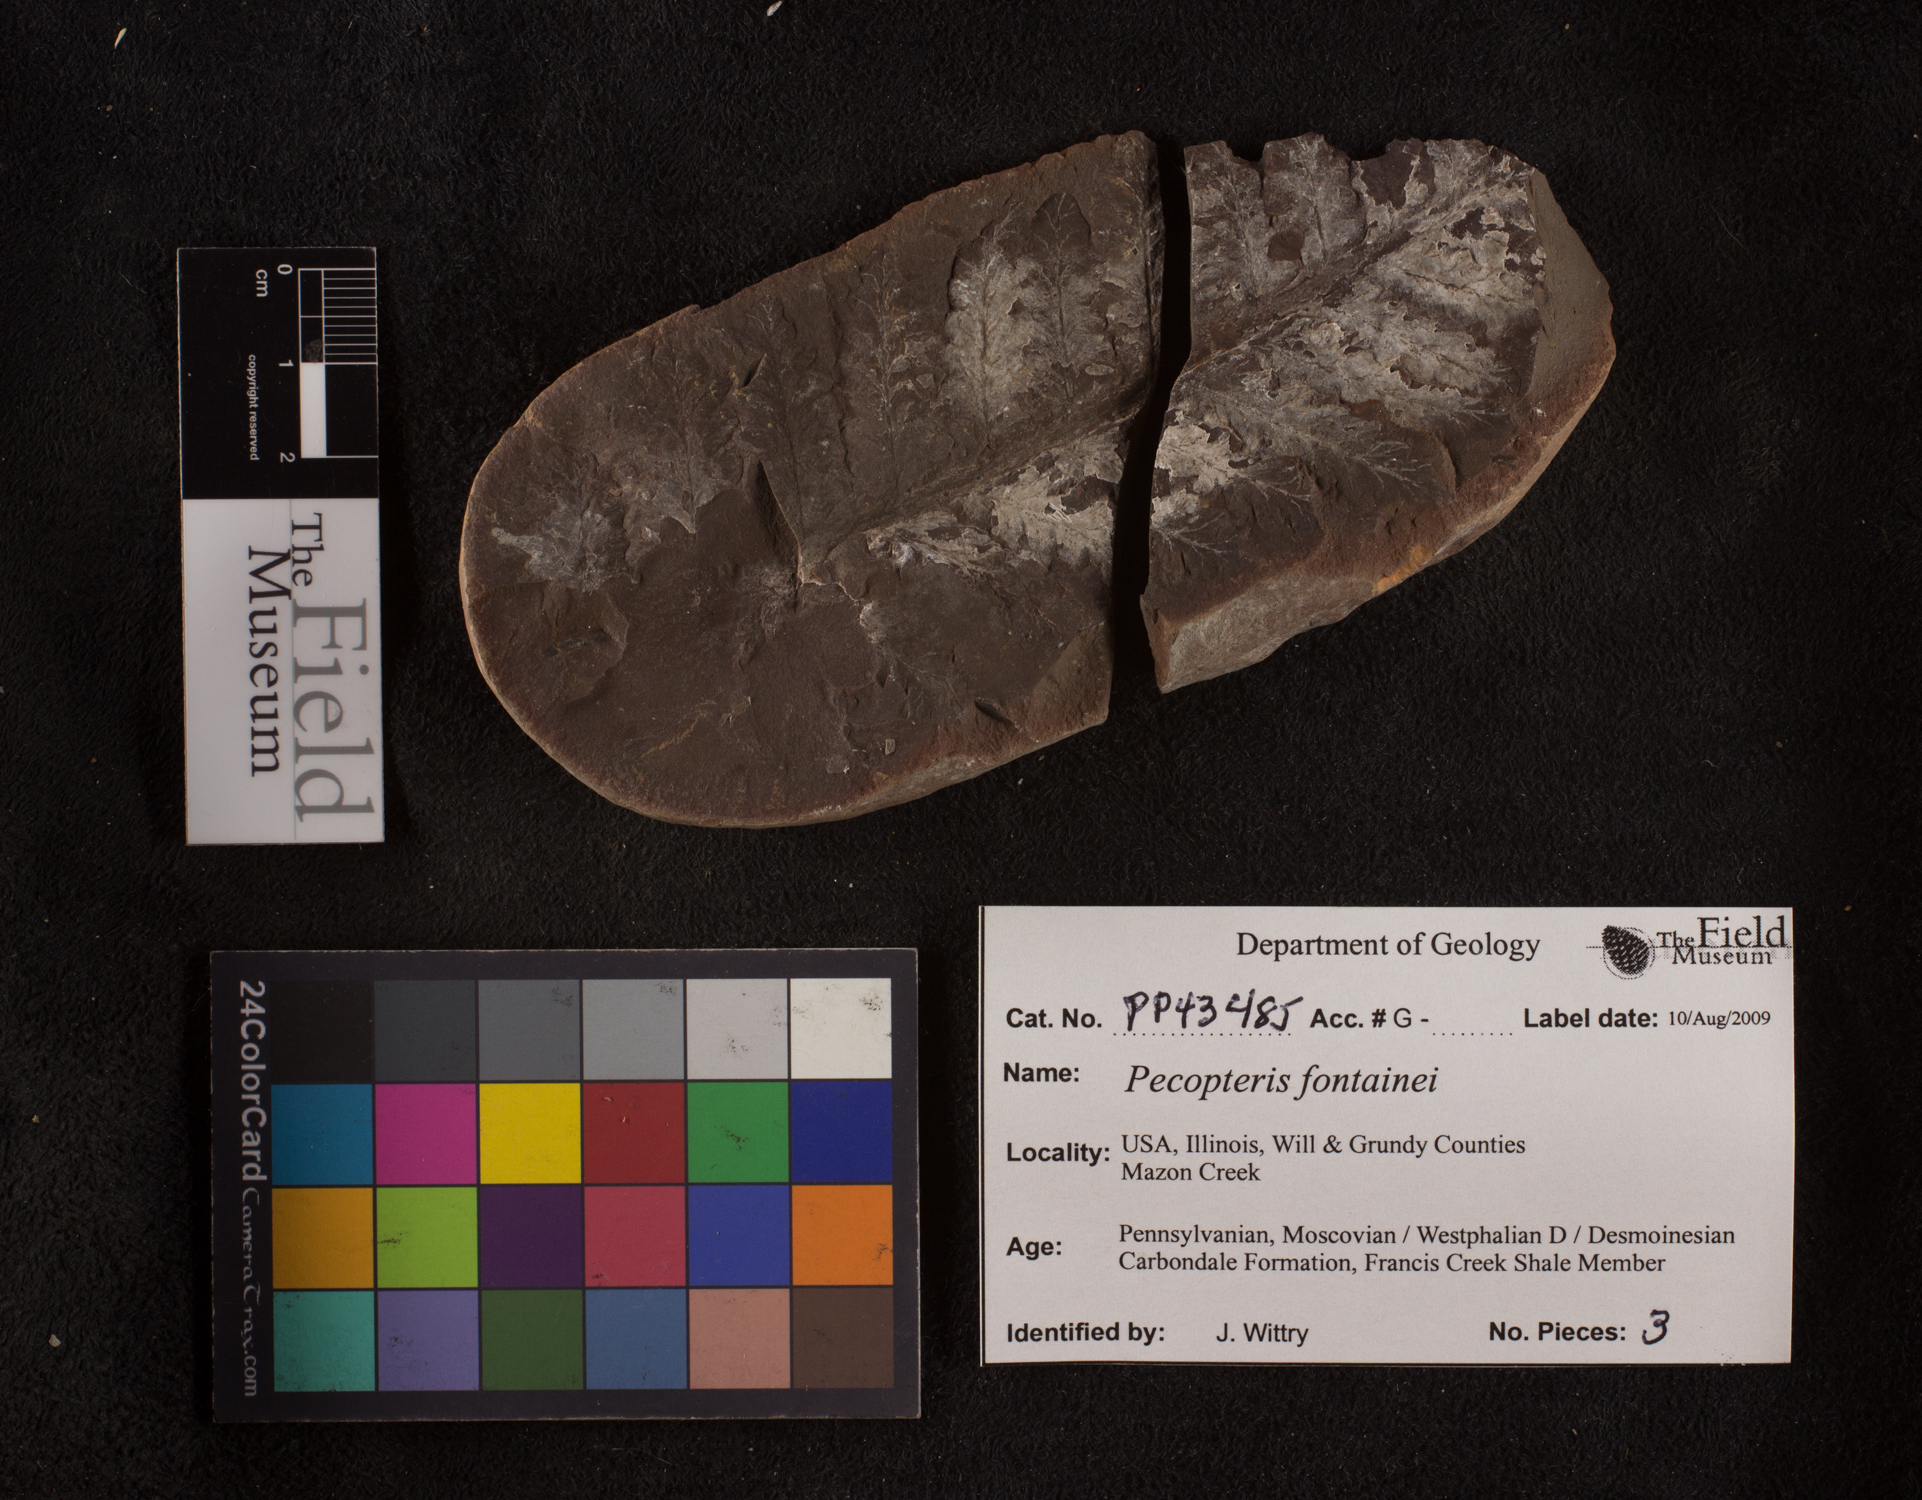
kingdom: Plantae
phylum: Tracheophyta
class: Polypodiopsida
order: Marattiales
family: Asterothecaceae
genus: Pecopteris
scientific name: Pecopteris
